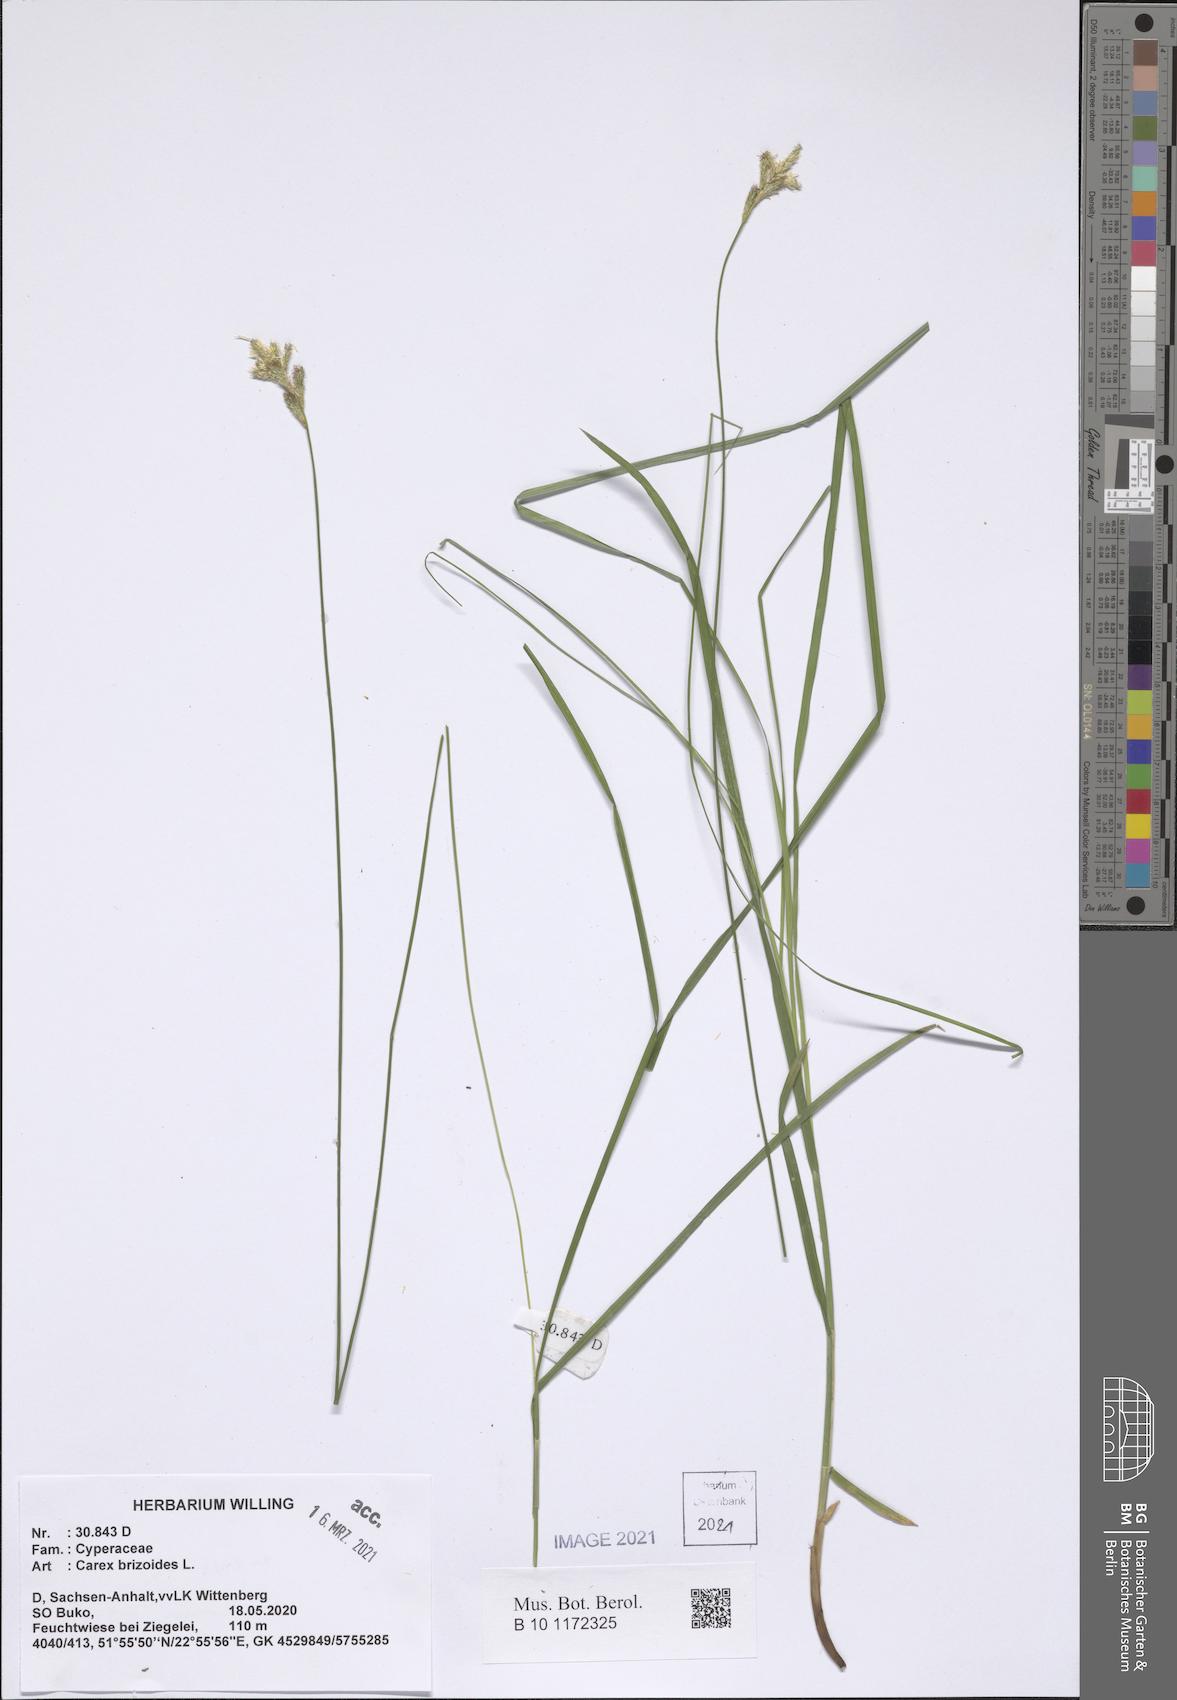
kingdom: Plantae
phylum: Tracheophyta
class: Liliopsida
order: Poales
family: Cyperaceae
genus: Carex
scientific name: Carex brizoides
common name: Quaking-grass sedge
